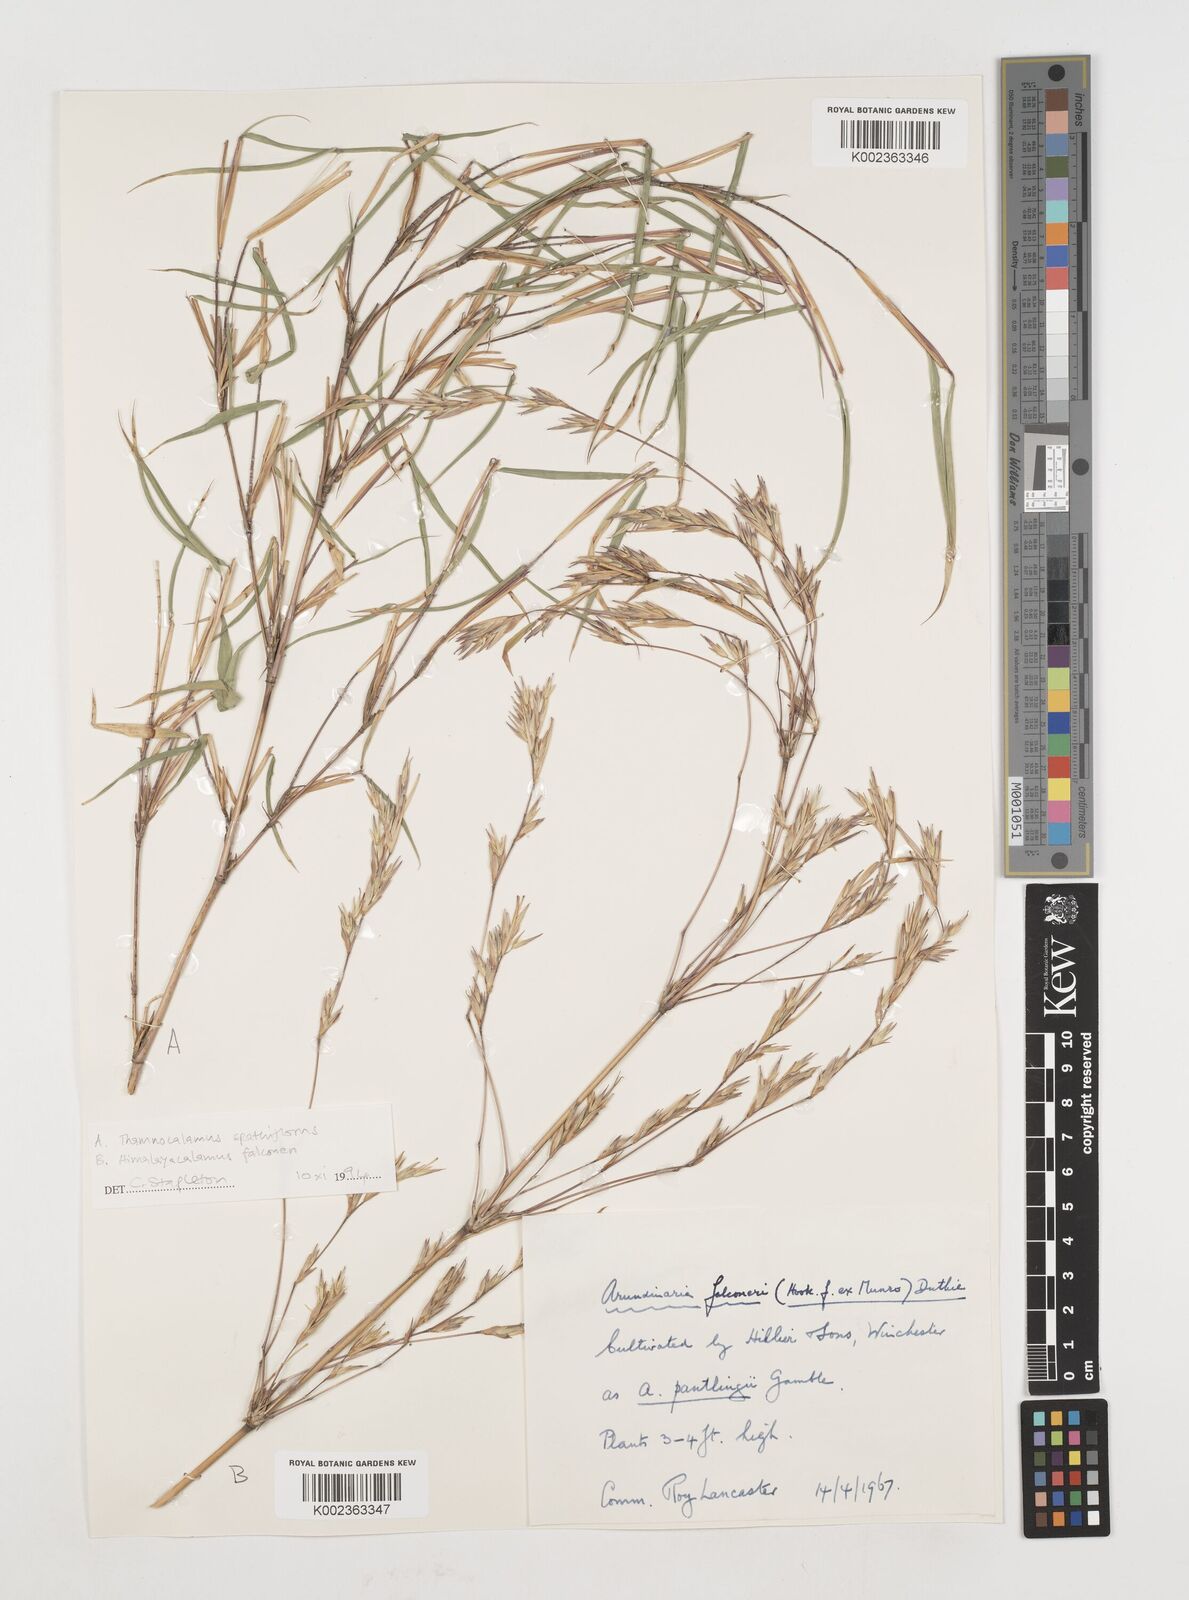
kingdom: Plantae
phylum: Tracheophyta
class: Liliopsida
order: Poales
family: Poaceae
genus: Himalayacalamus
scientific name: Himalayacalamus falconeri
